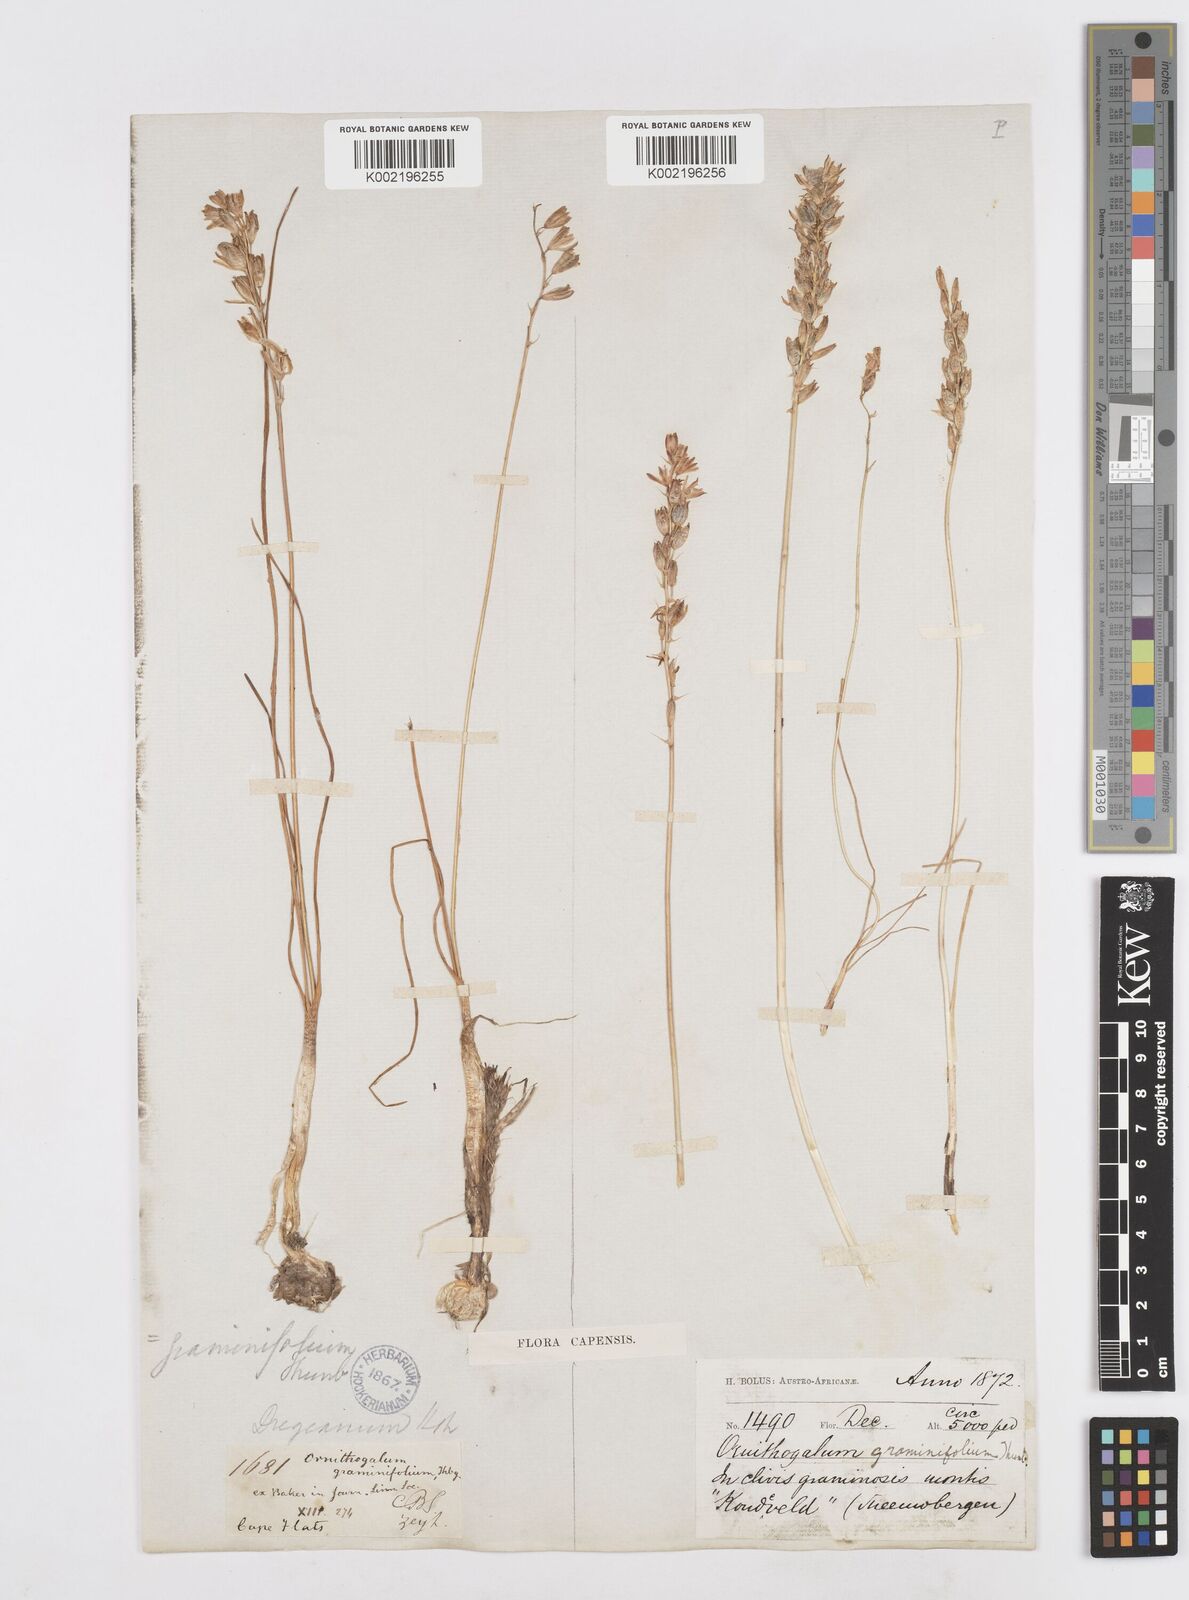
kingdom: Plantae
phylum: Tracheophyta
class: Liliopsida
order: Asparagales
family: Asparagaceae
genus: Ornithogalum
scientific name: Ornithogalum graminifolium
